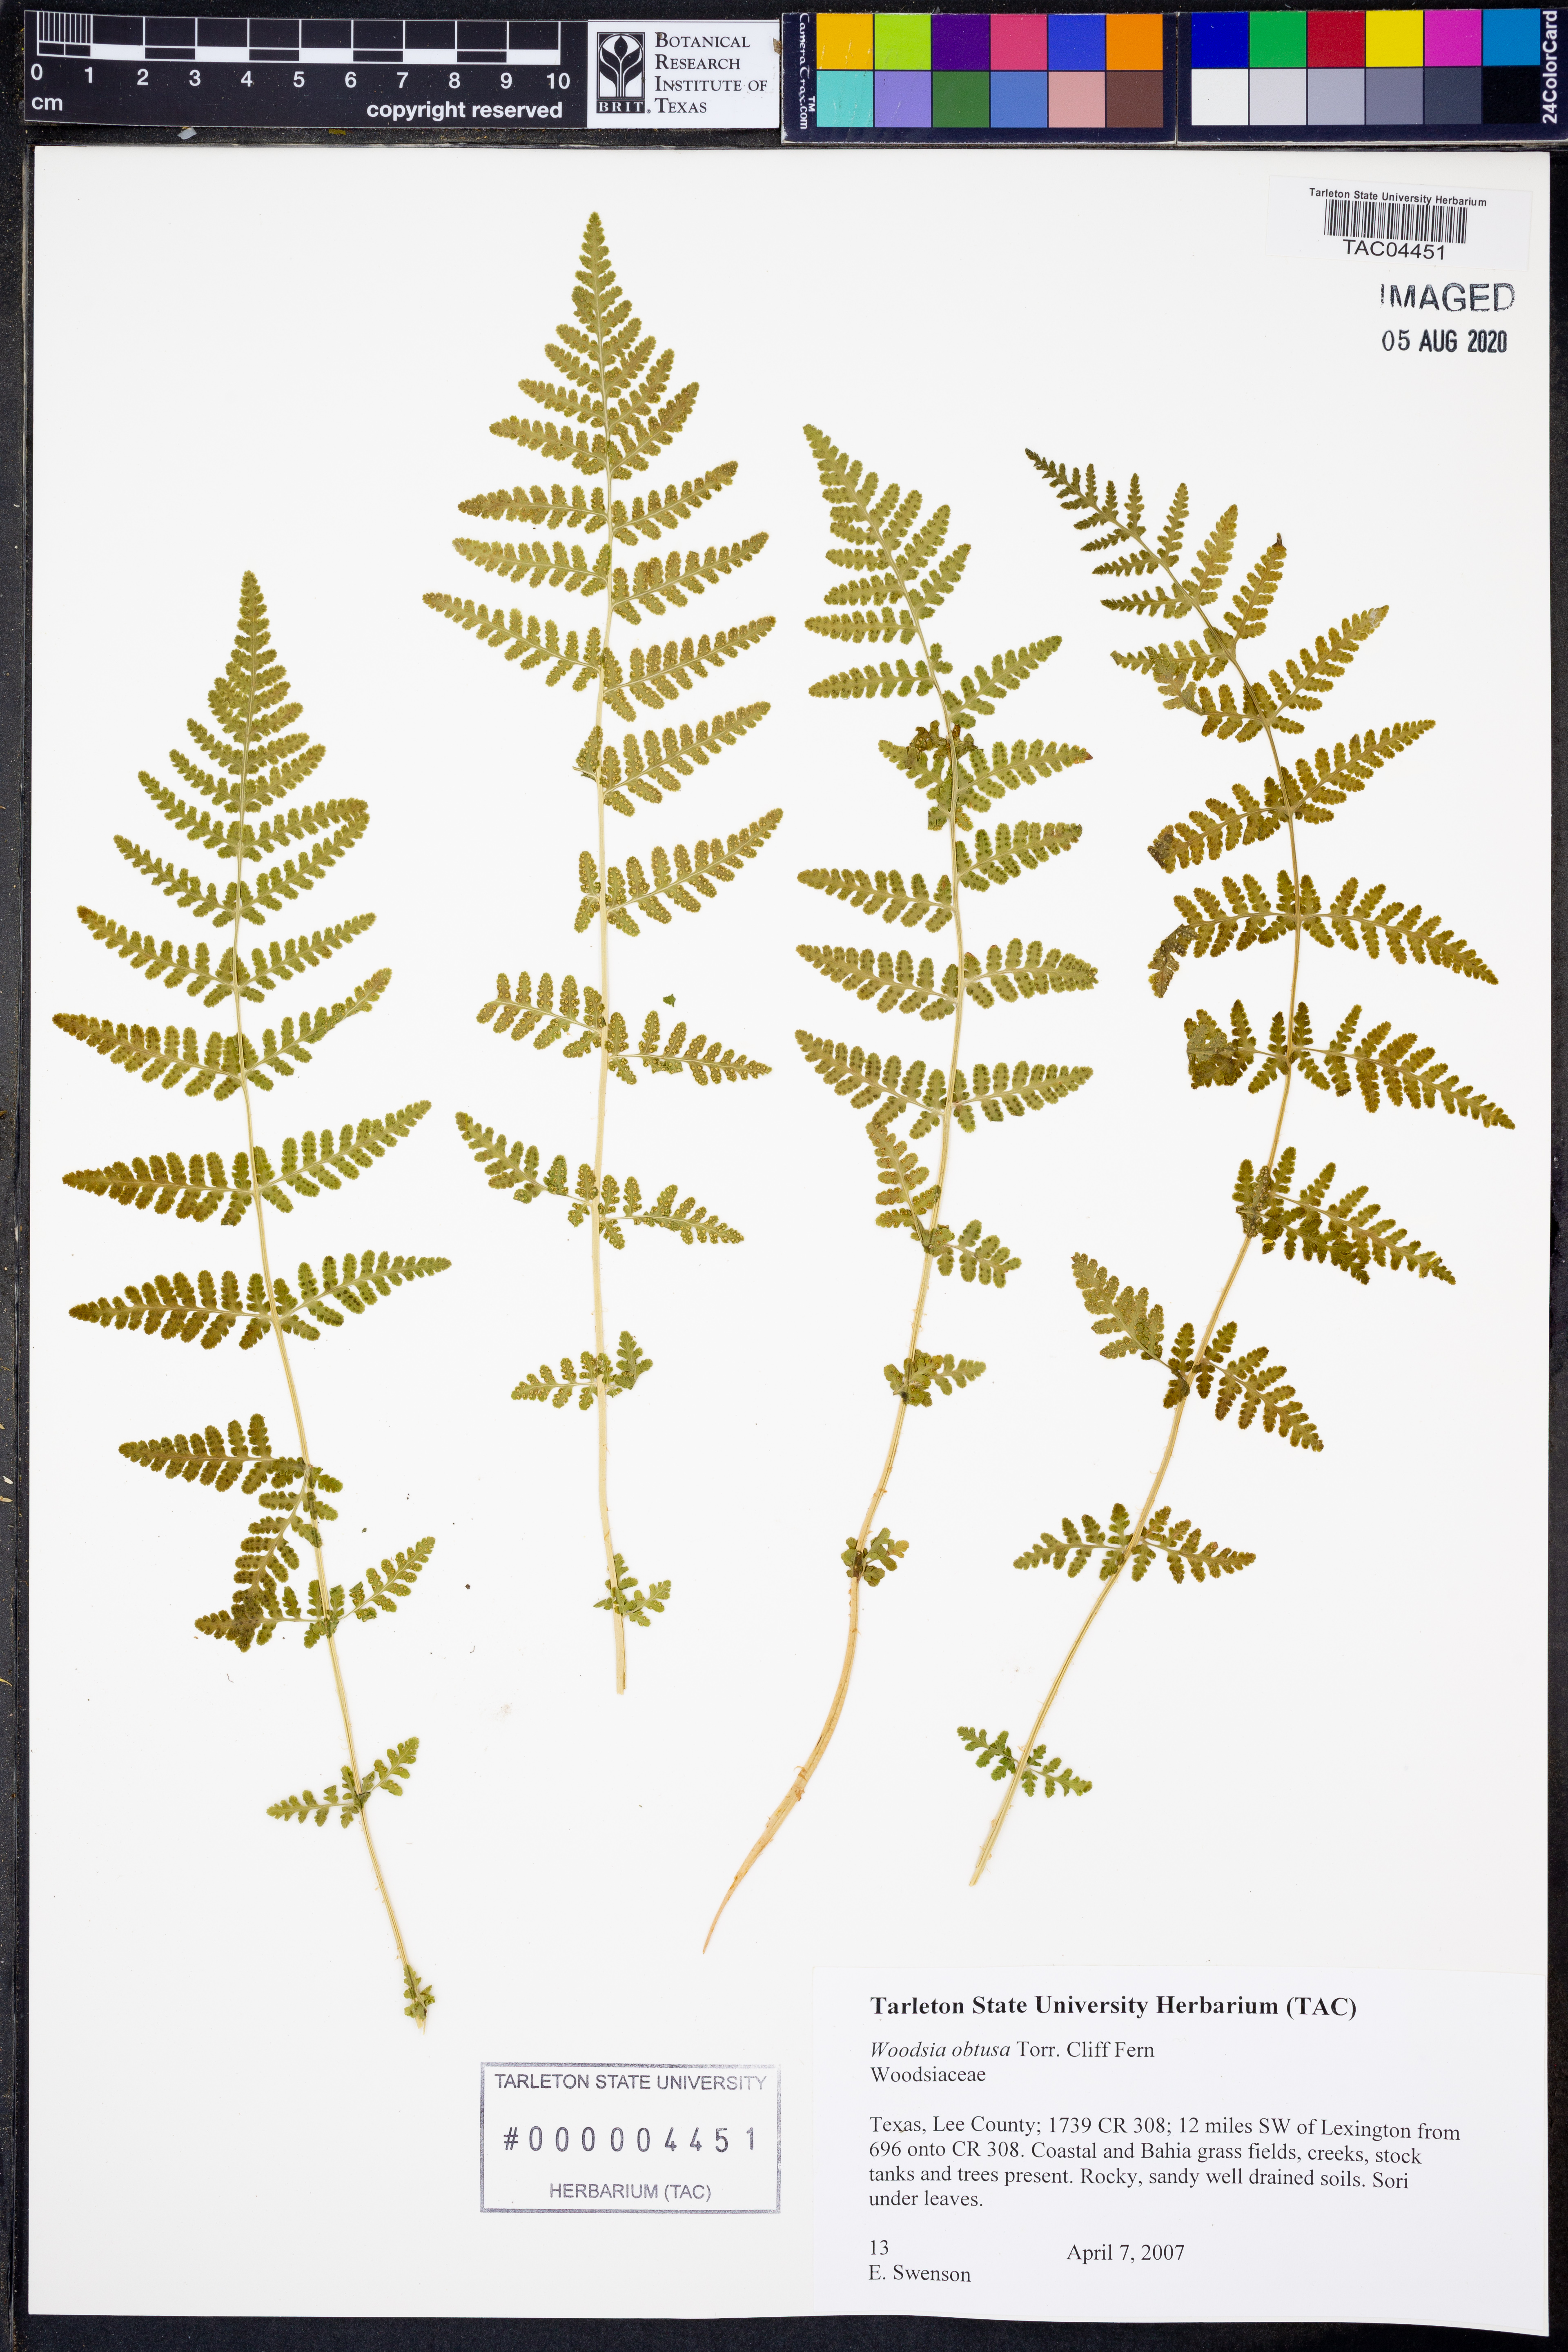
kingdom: Plantae
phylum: Tracheophyta
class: Polypodiopsida
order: Polypodiales
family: Woodsiaceae
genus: Physematium
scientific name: Physematium obtusum
